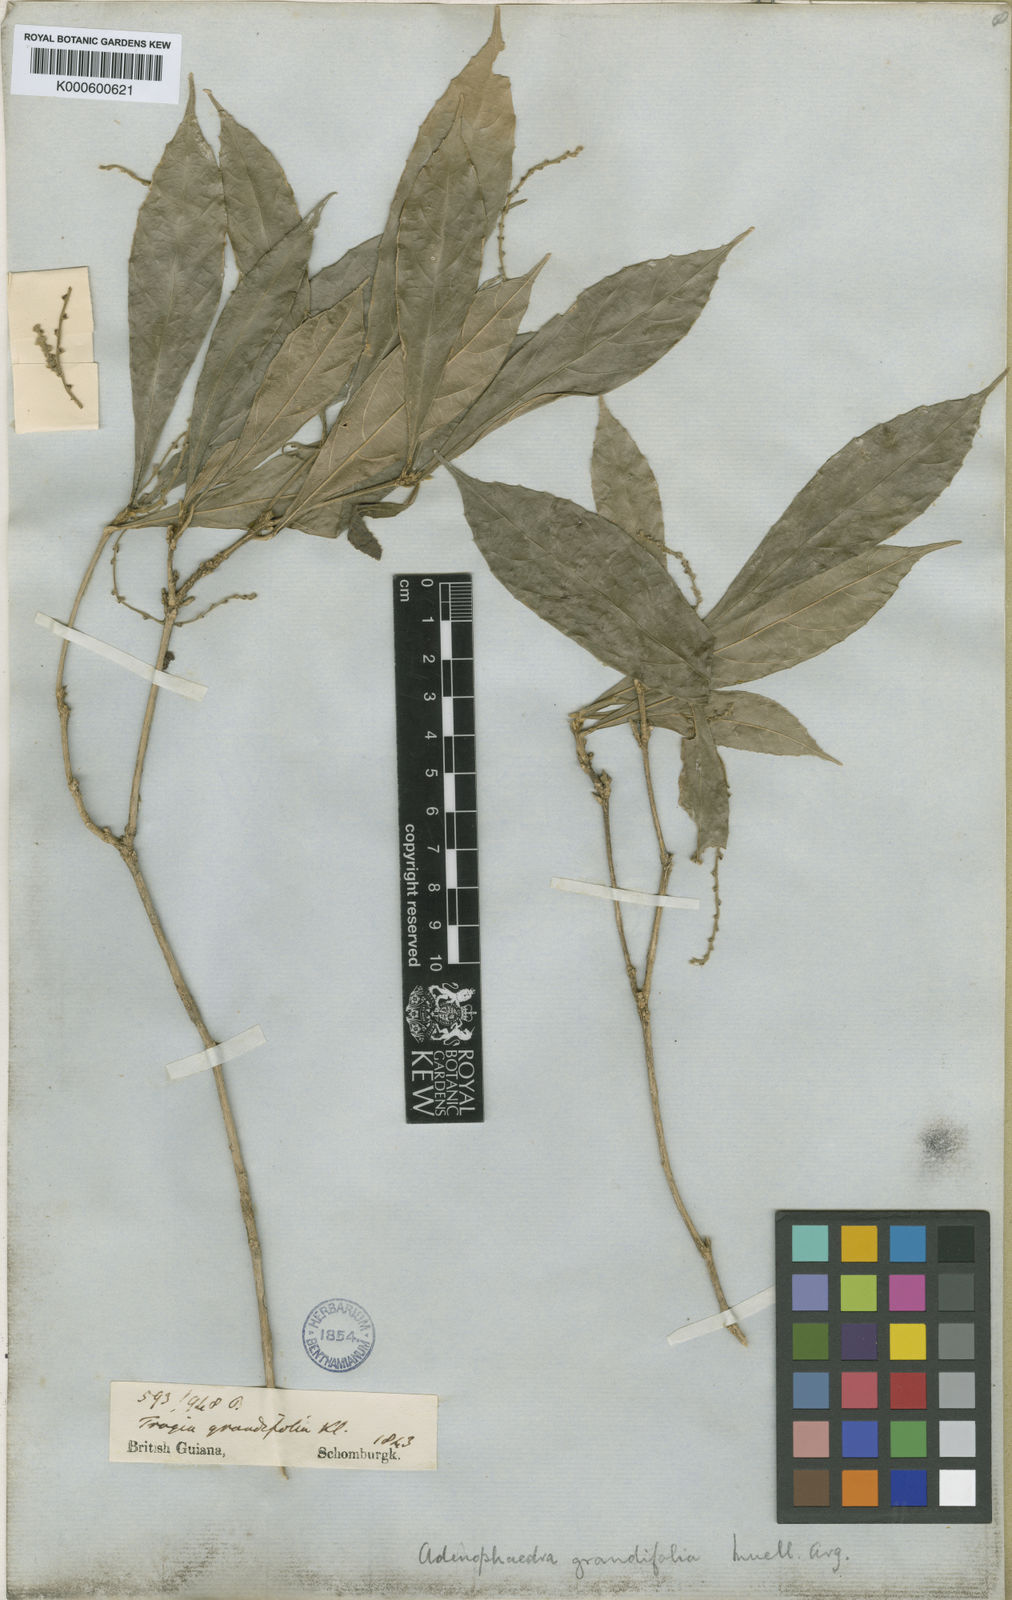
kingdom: Plantae
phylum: Tracheophyta
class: Magnoliopsida
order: Malpighiales
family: Euphorbiaceae
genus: Adenophaedra
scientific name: Adenophaedra
